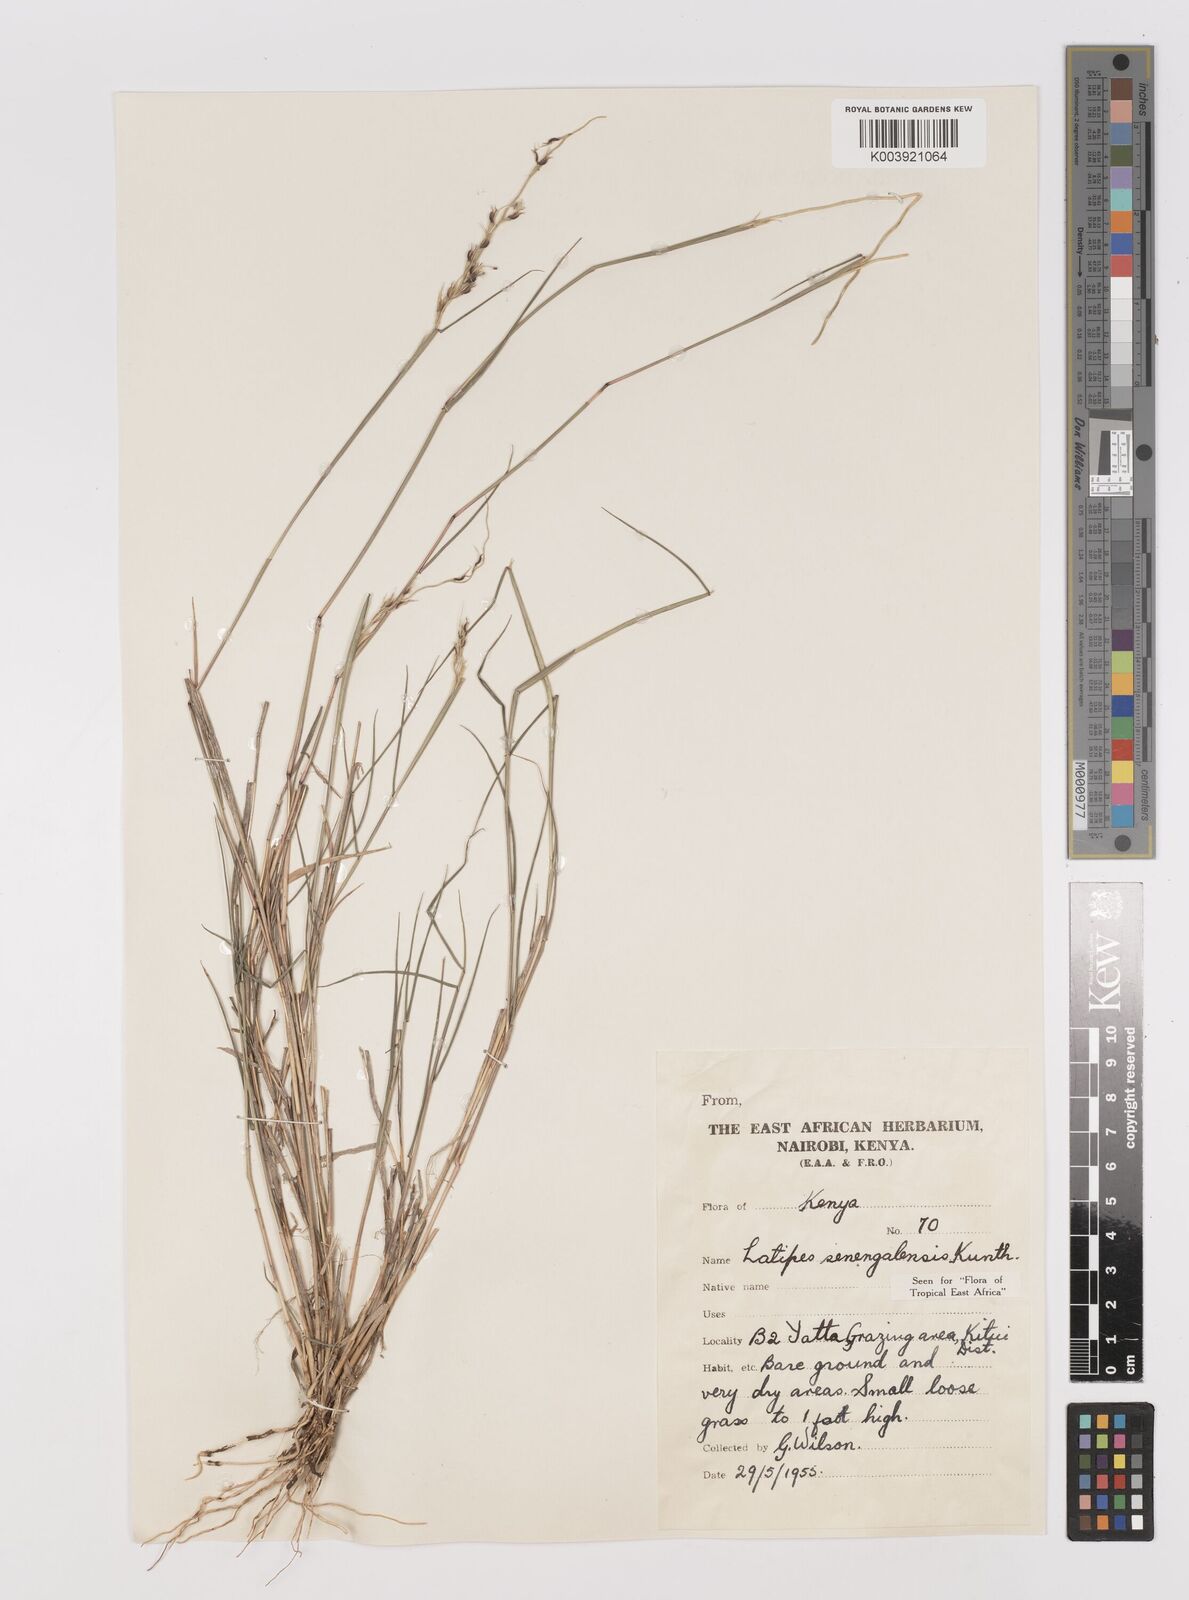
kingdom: Plantae
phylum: Tracheophyta
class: Liliopsida
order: Poales
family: Poaceae
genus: Leptothrium
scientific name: Leptothrium senegalense
